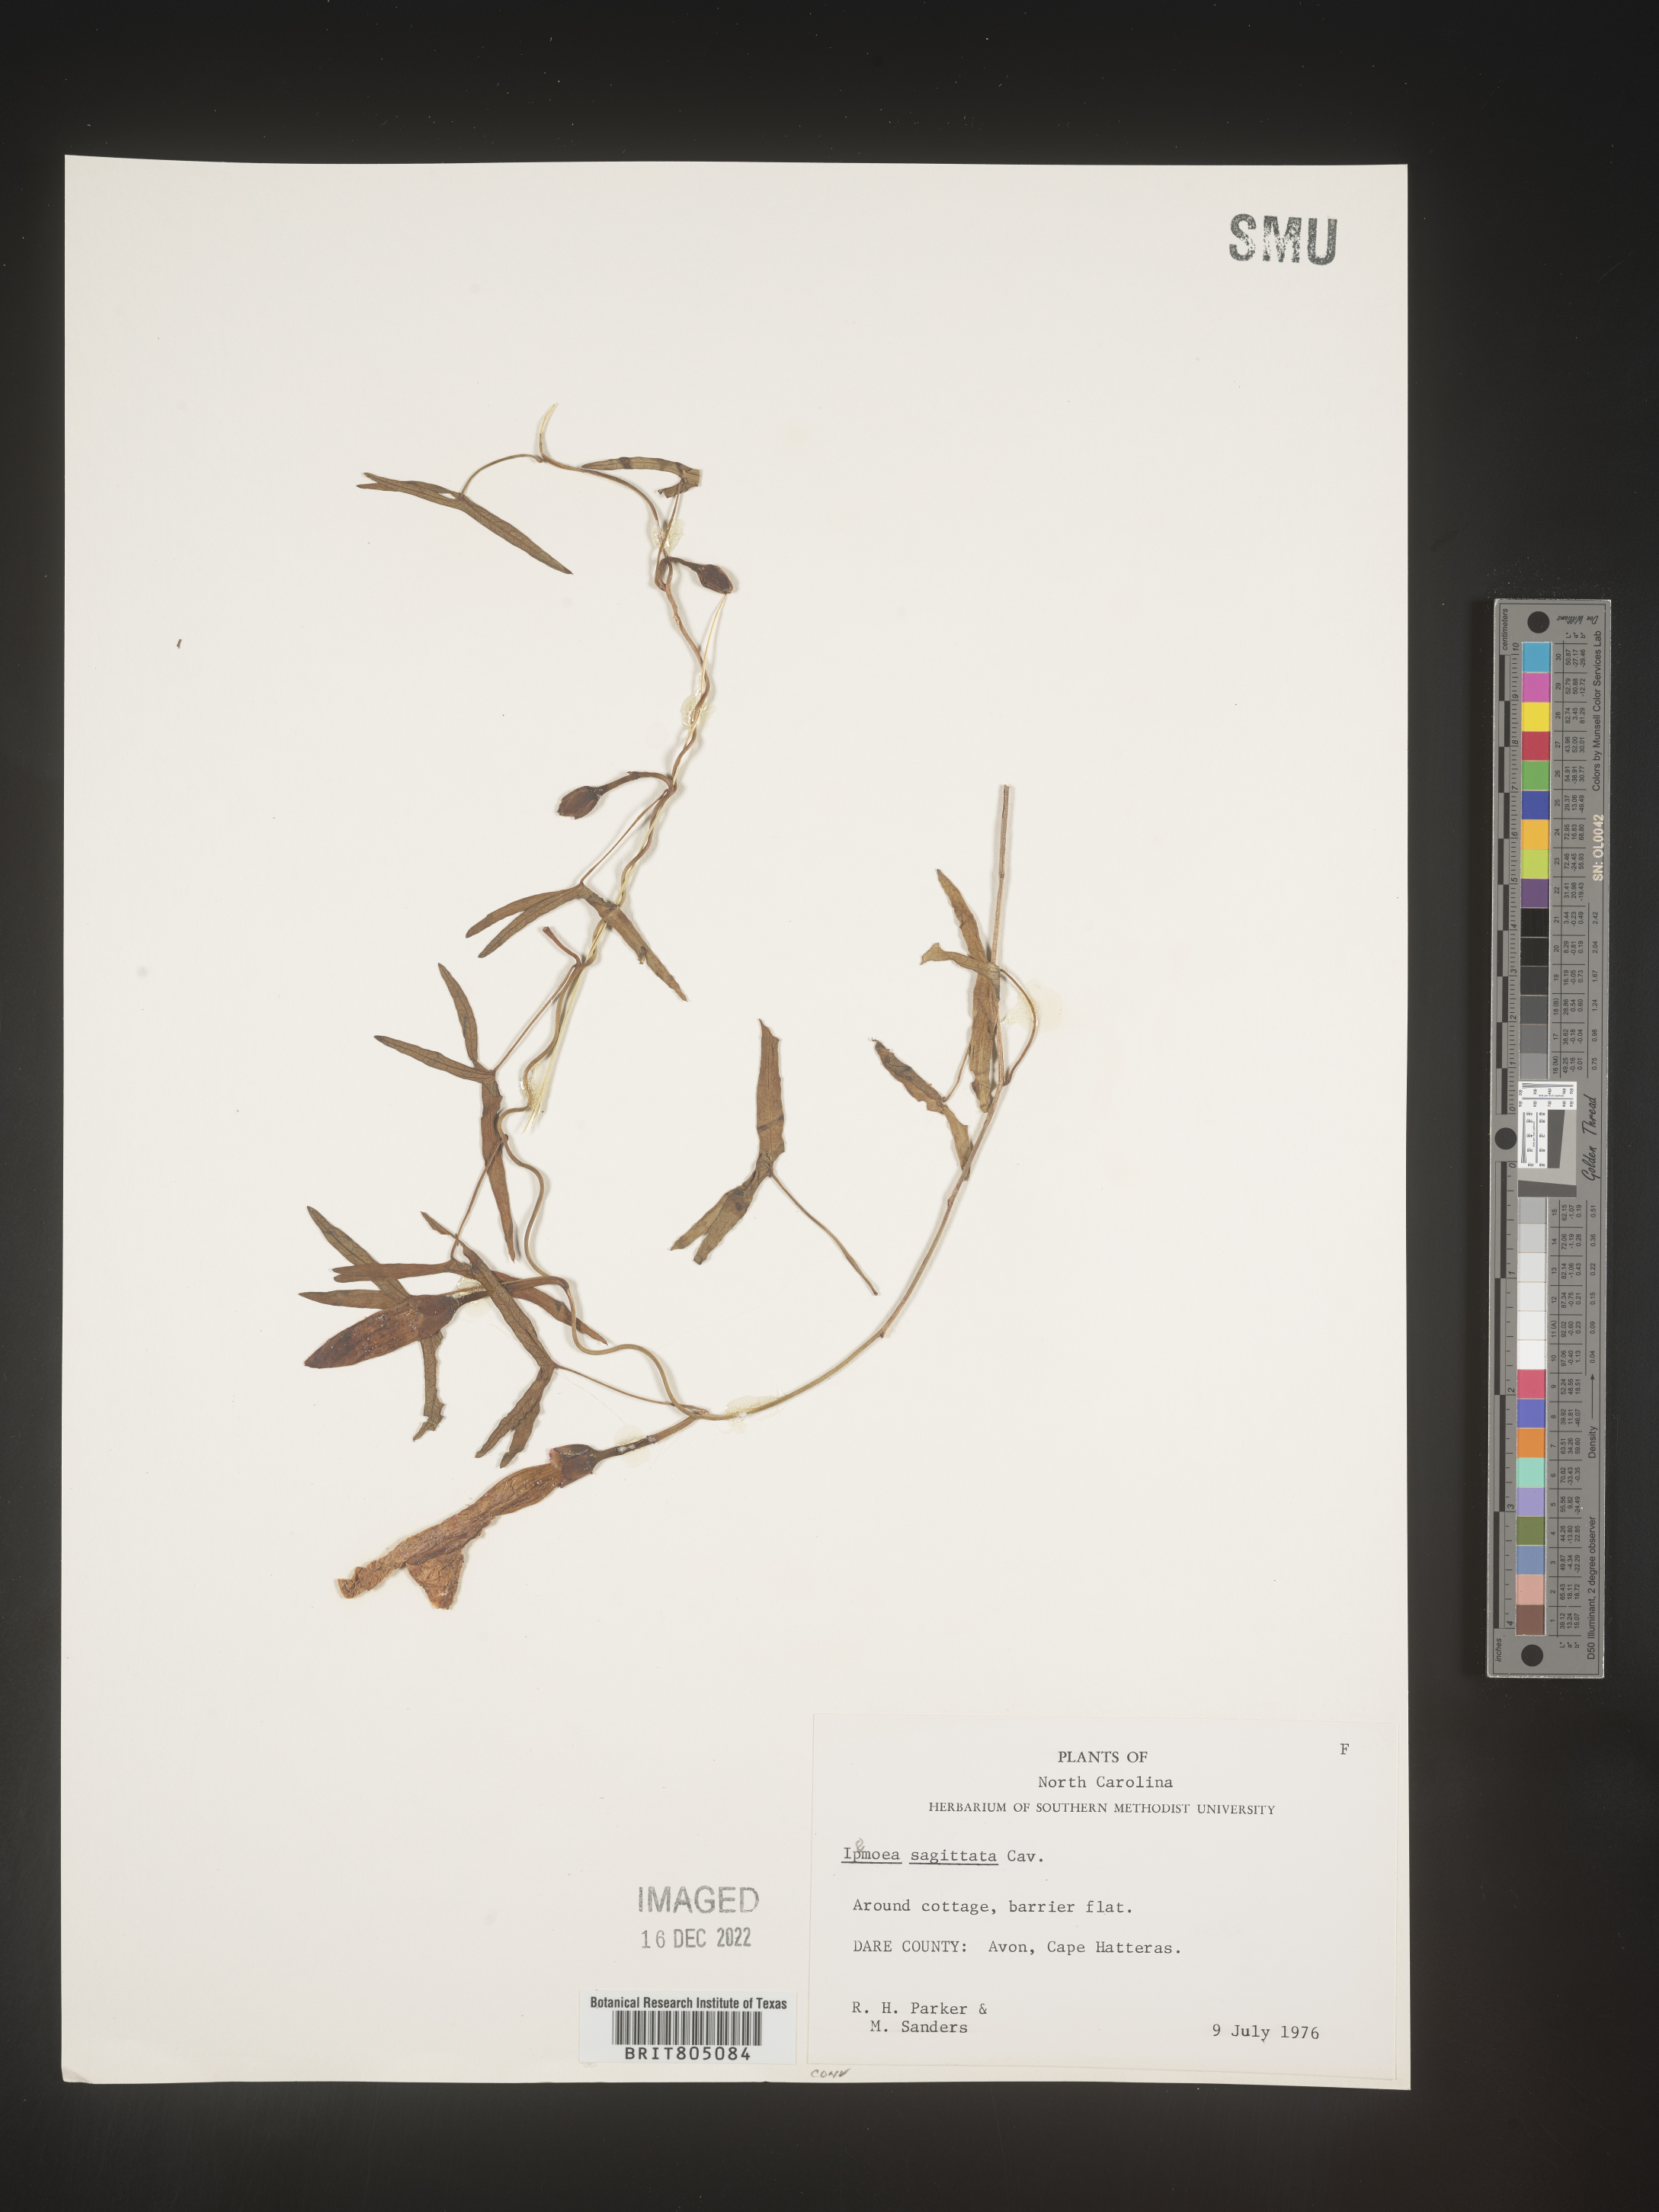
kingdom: Plantae
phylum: Tracheophyta
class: Magnoliopsida
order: Solanales
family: Convolvulaceae
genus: Ipomoea
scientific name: Ipomoea sinensis
